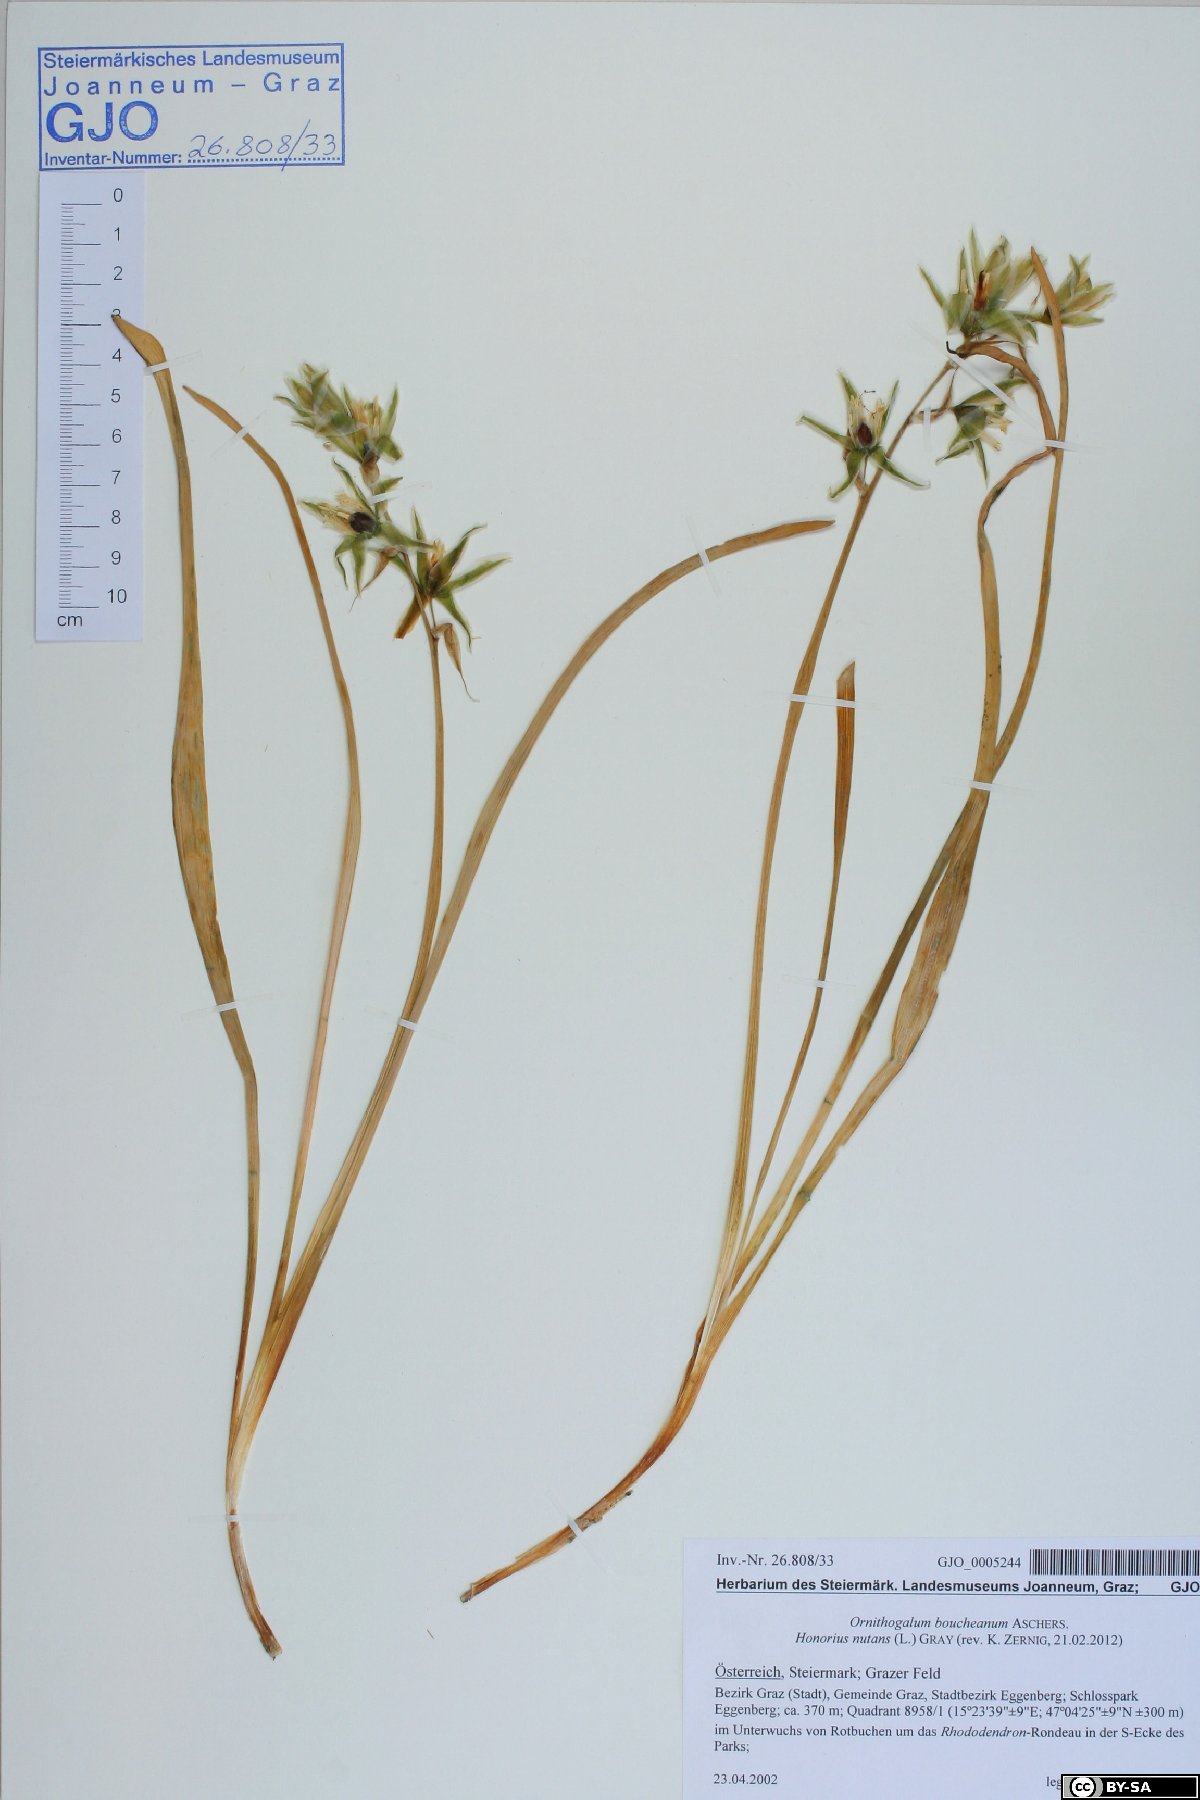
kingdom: Plantae
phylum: Tracheophyta
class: Liliopsida
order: Asparagales
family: Asparagaceae
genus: Ornithogalum
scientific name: Ornithogalum nutans
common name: Drooping star-of-bethlehem
